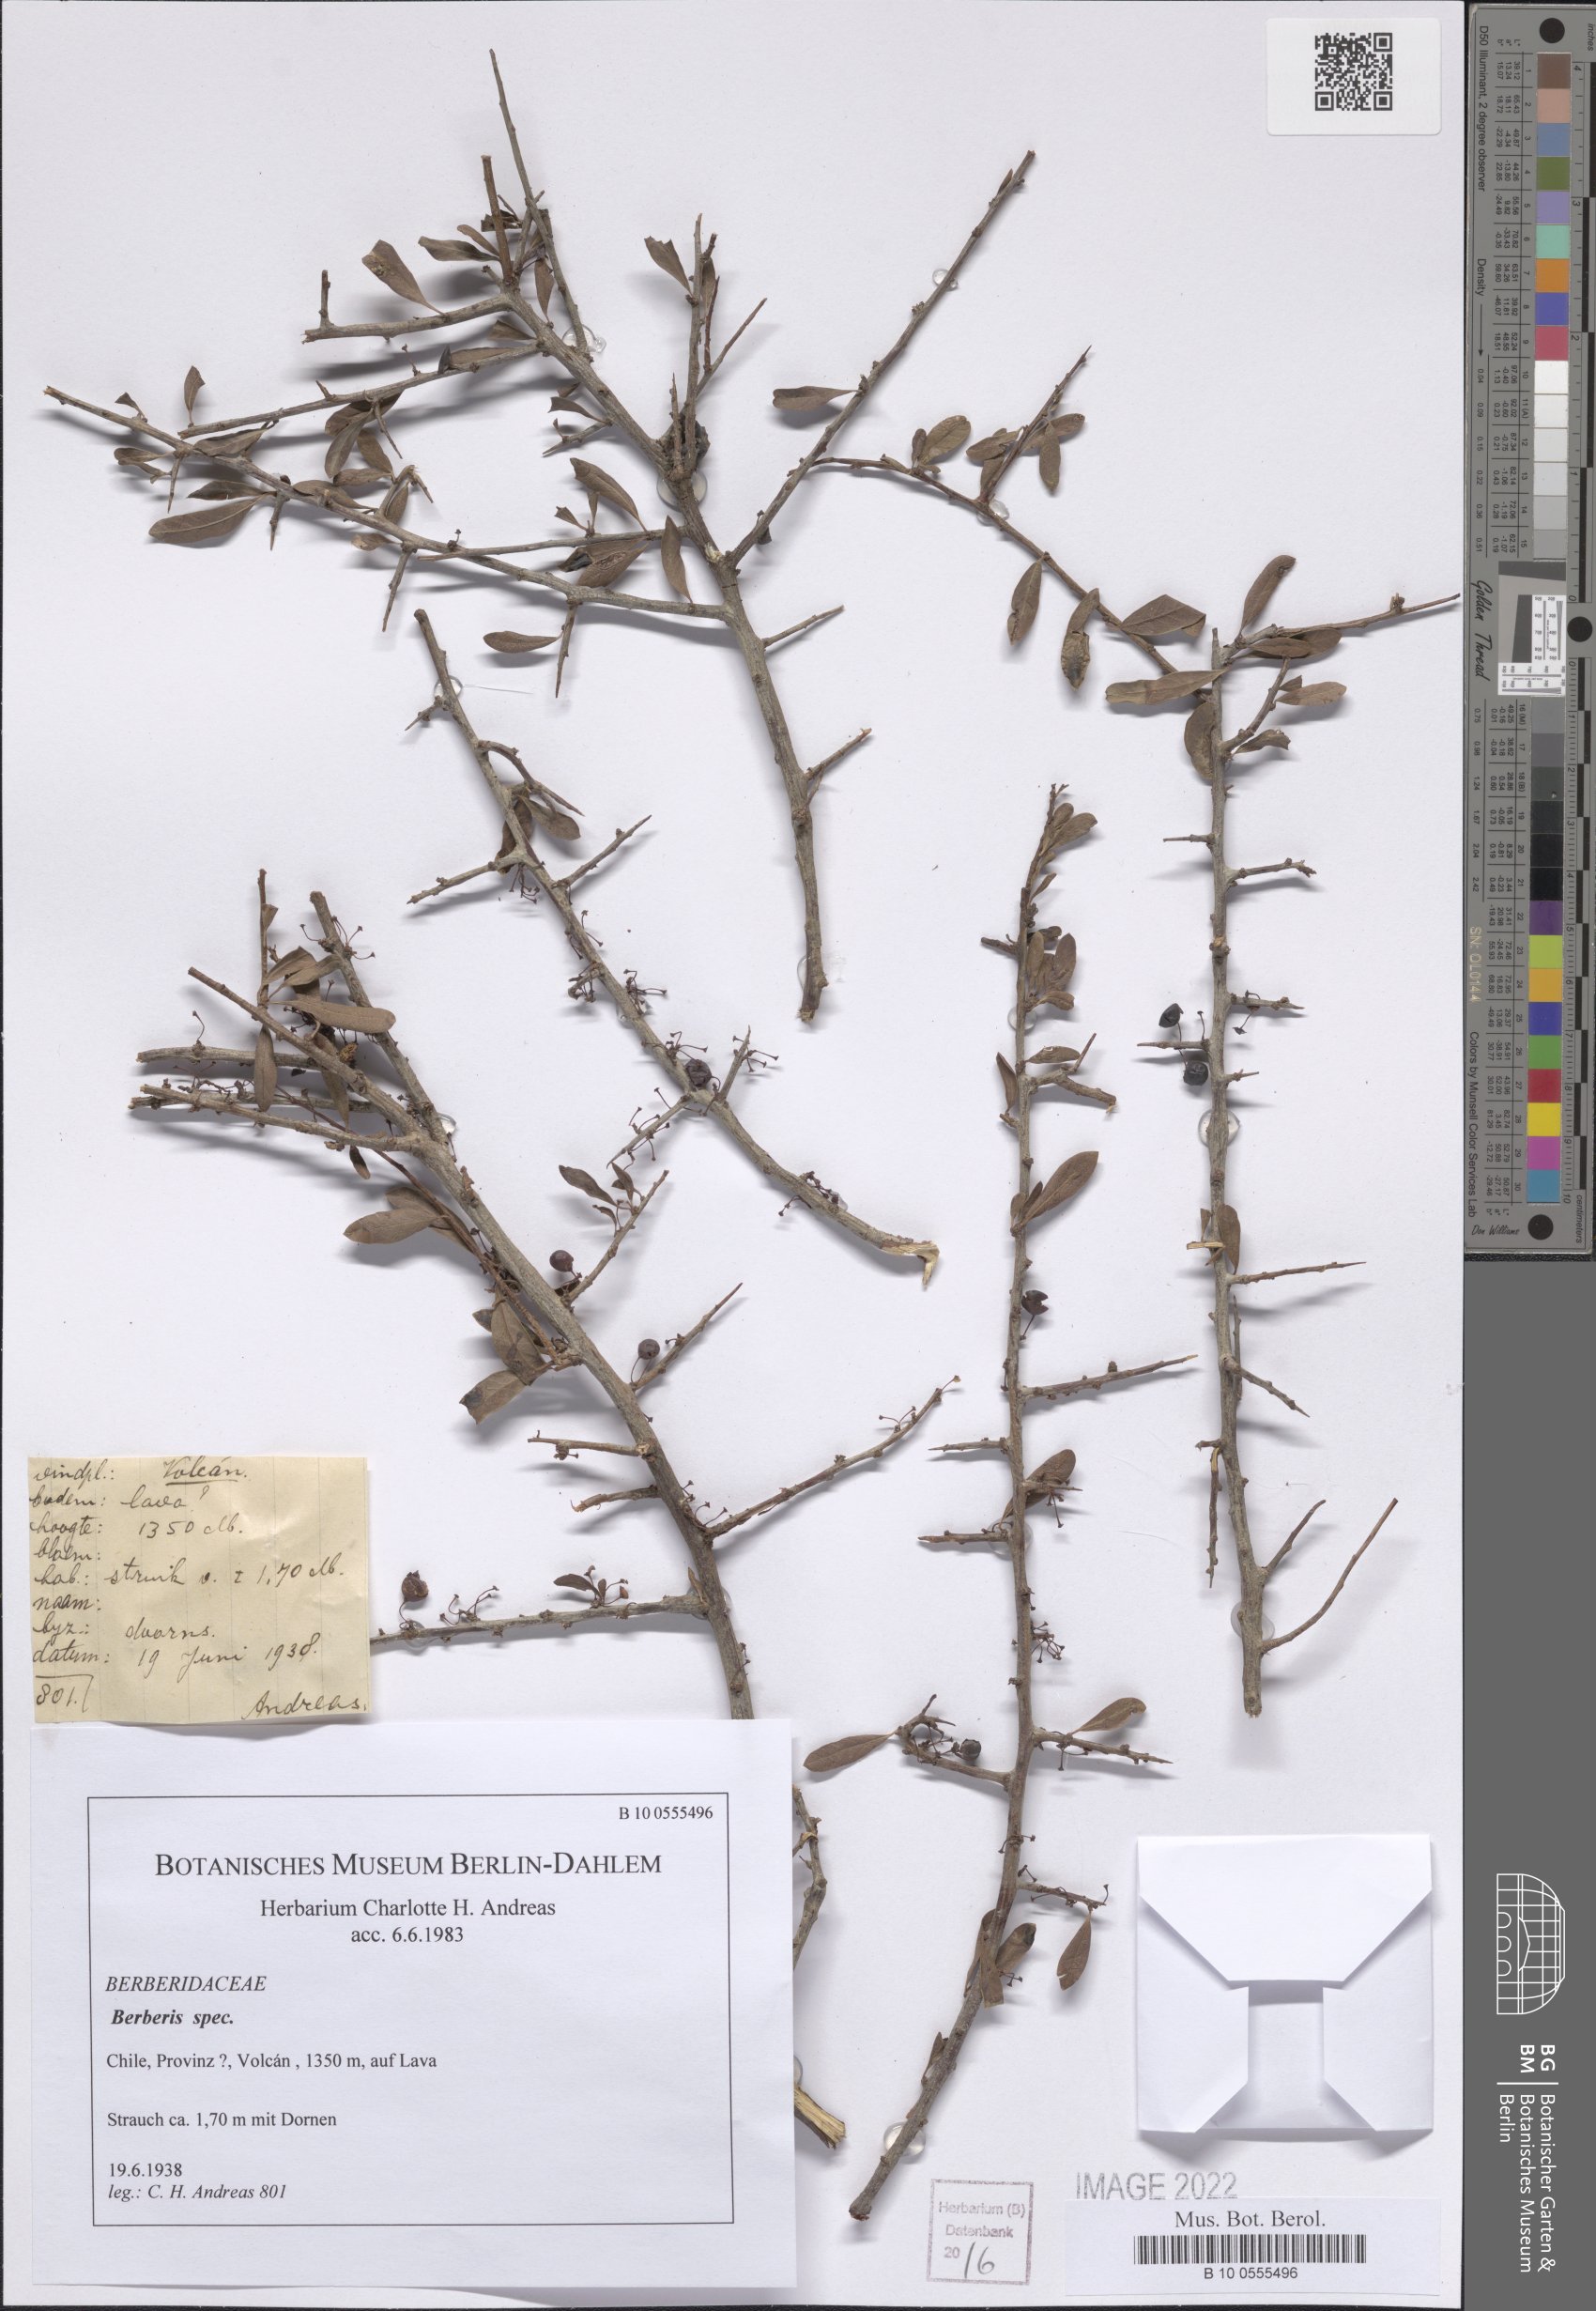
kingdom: Plantae
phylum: Tracheophyta
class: Magnoliopsida
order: Ranunculales
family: Berberidaceae
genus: Berberis
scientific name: Berberis
